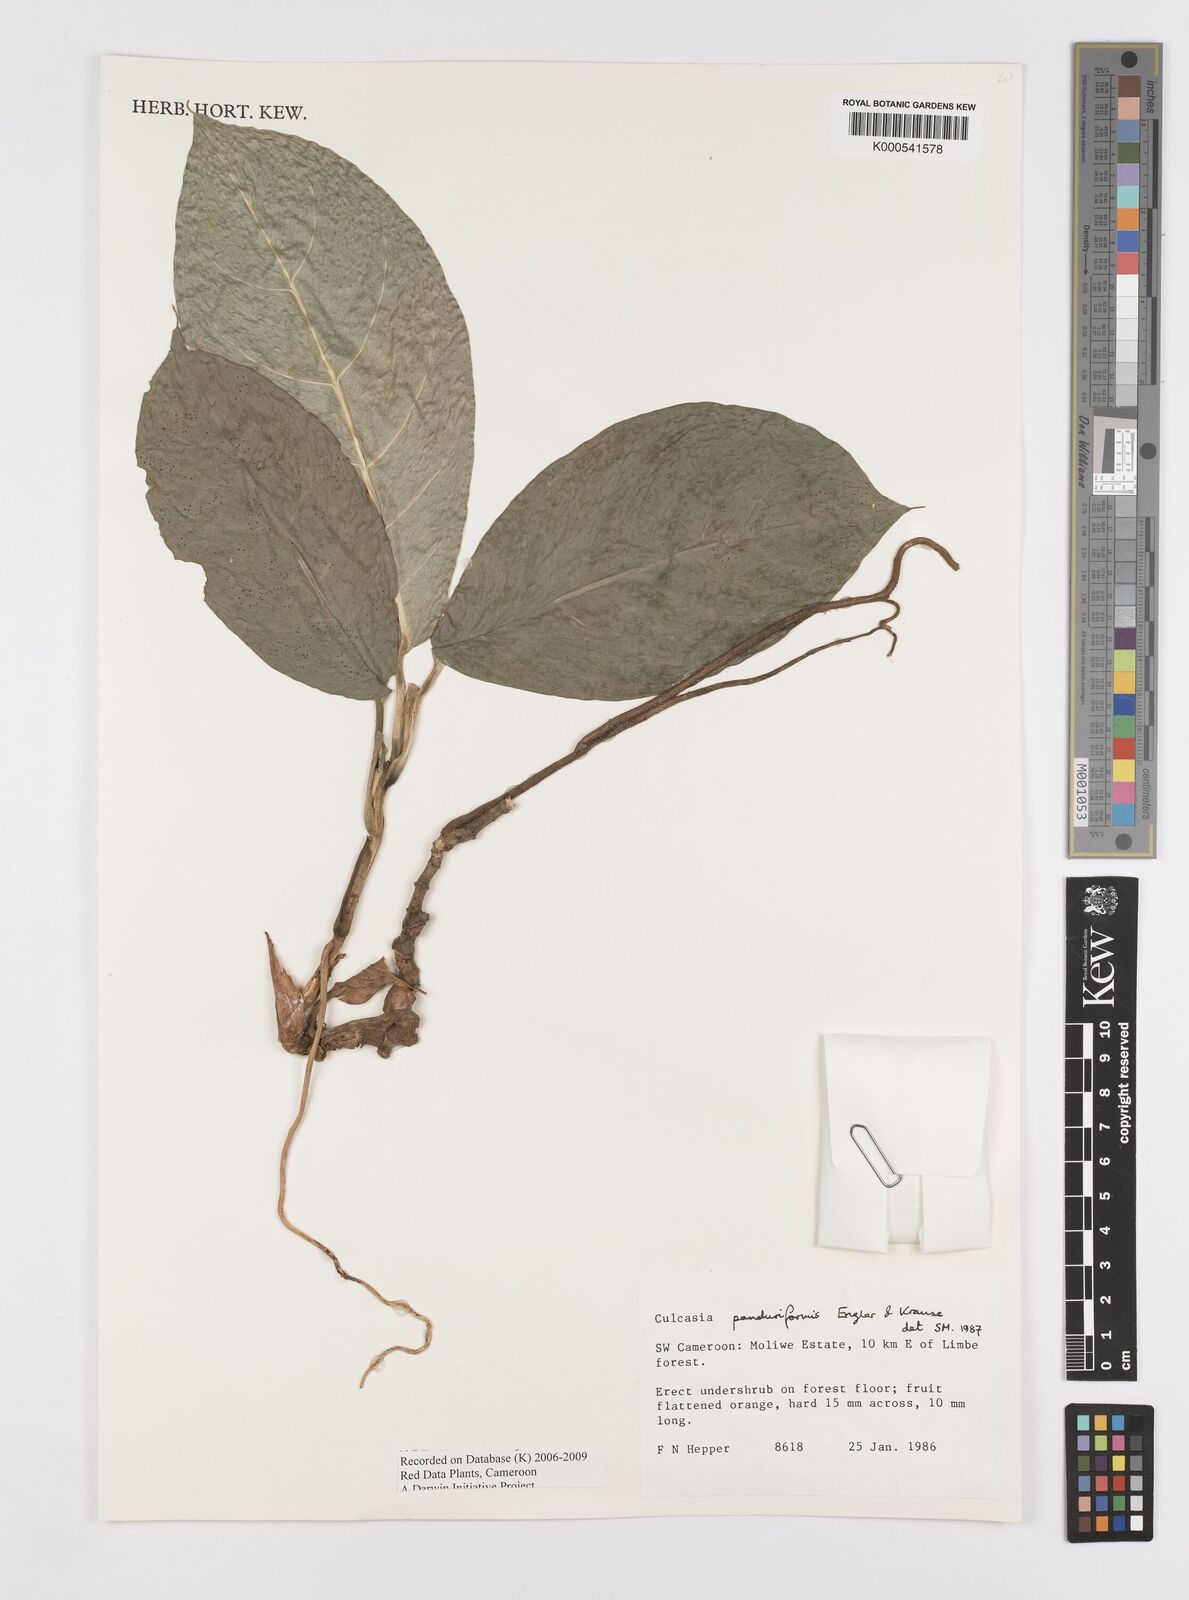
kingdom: Plantae
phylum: Tracheophyta
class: Liliopsida
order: Alismatales
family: Araceae
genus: Culcasia
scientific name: Culcasia panduriformis
